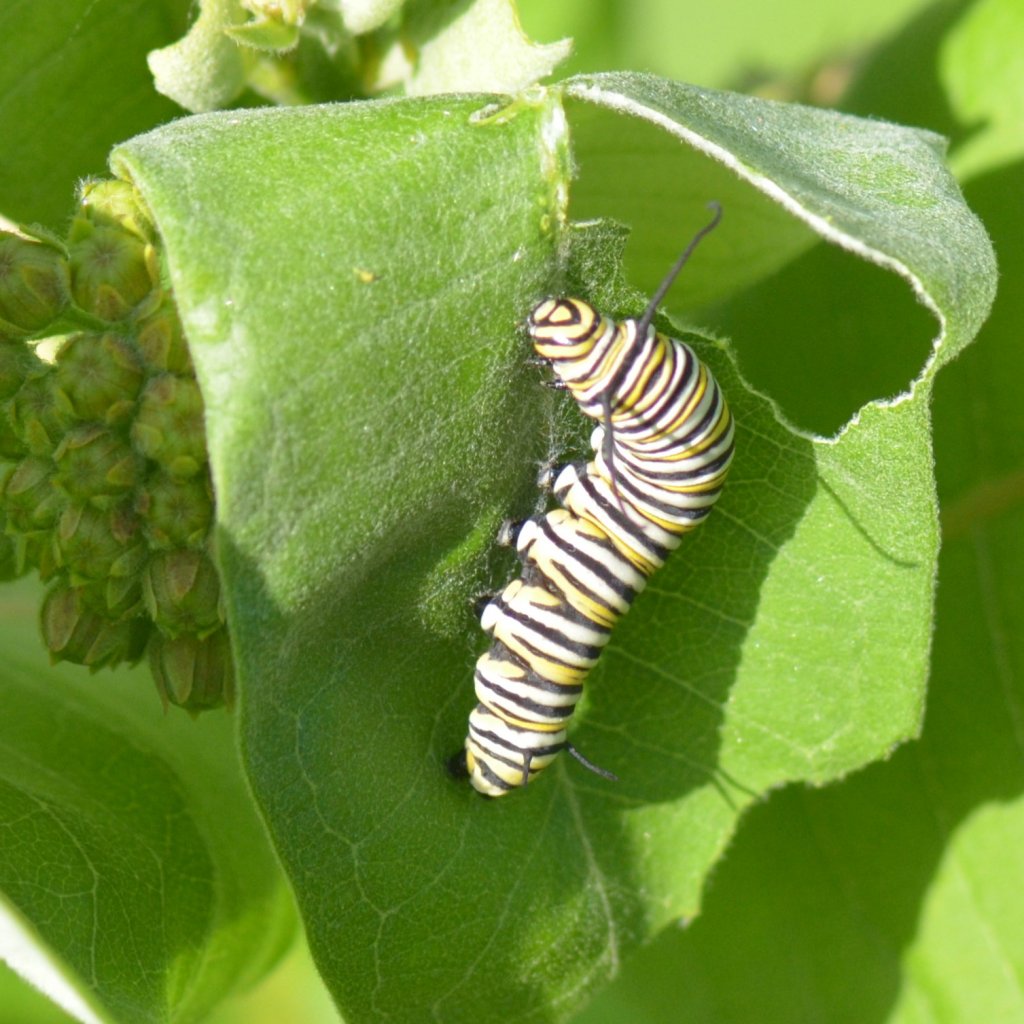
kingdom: Animalia
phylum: Arthropoda
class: Insecta
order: Lepidoptera
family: Nymphalidae
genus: Danaus
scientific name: Danaus plexippus
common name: Monarch
